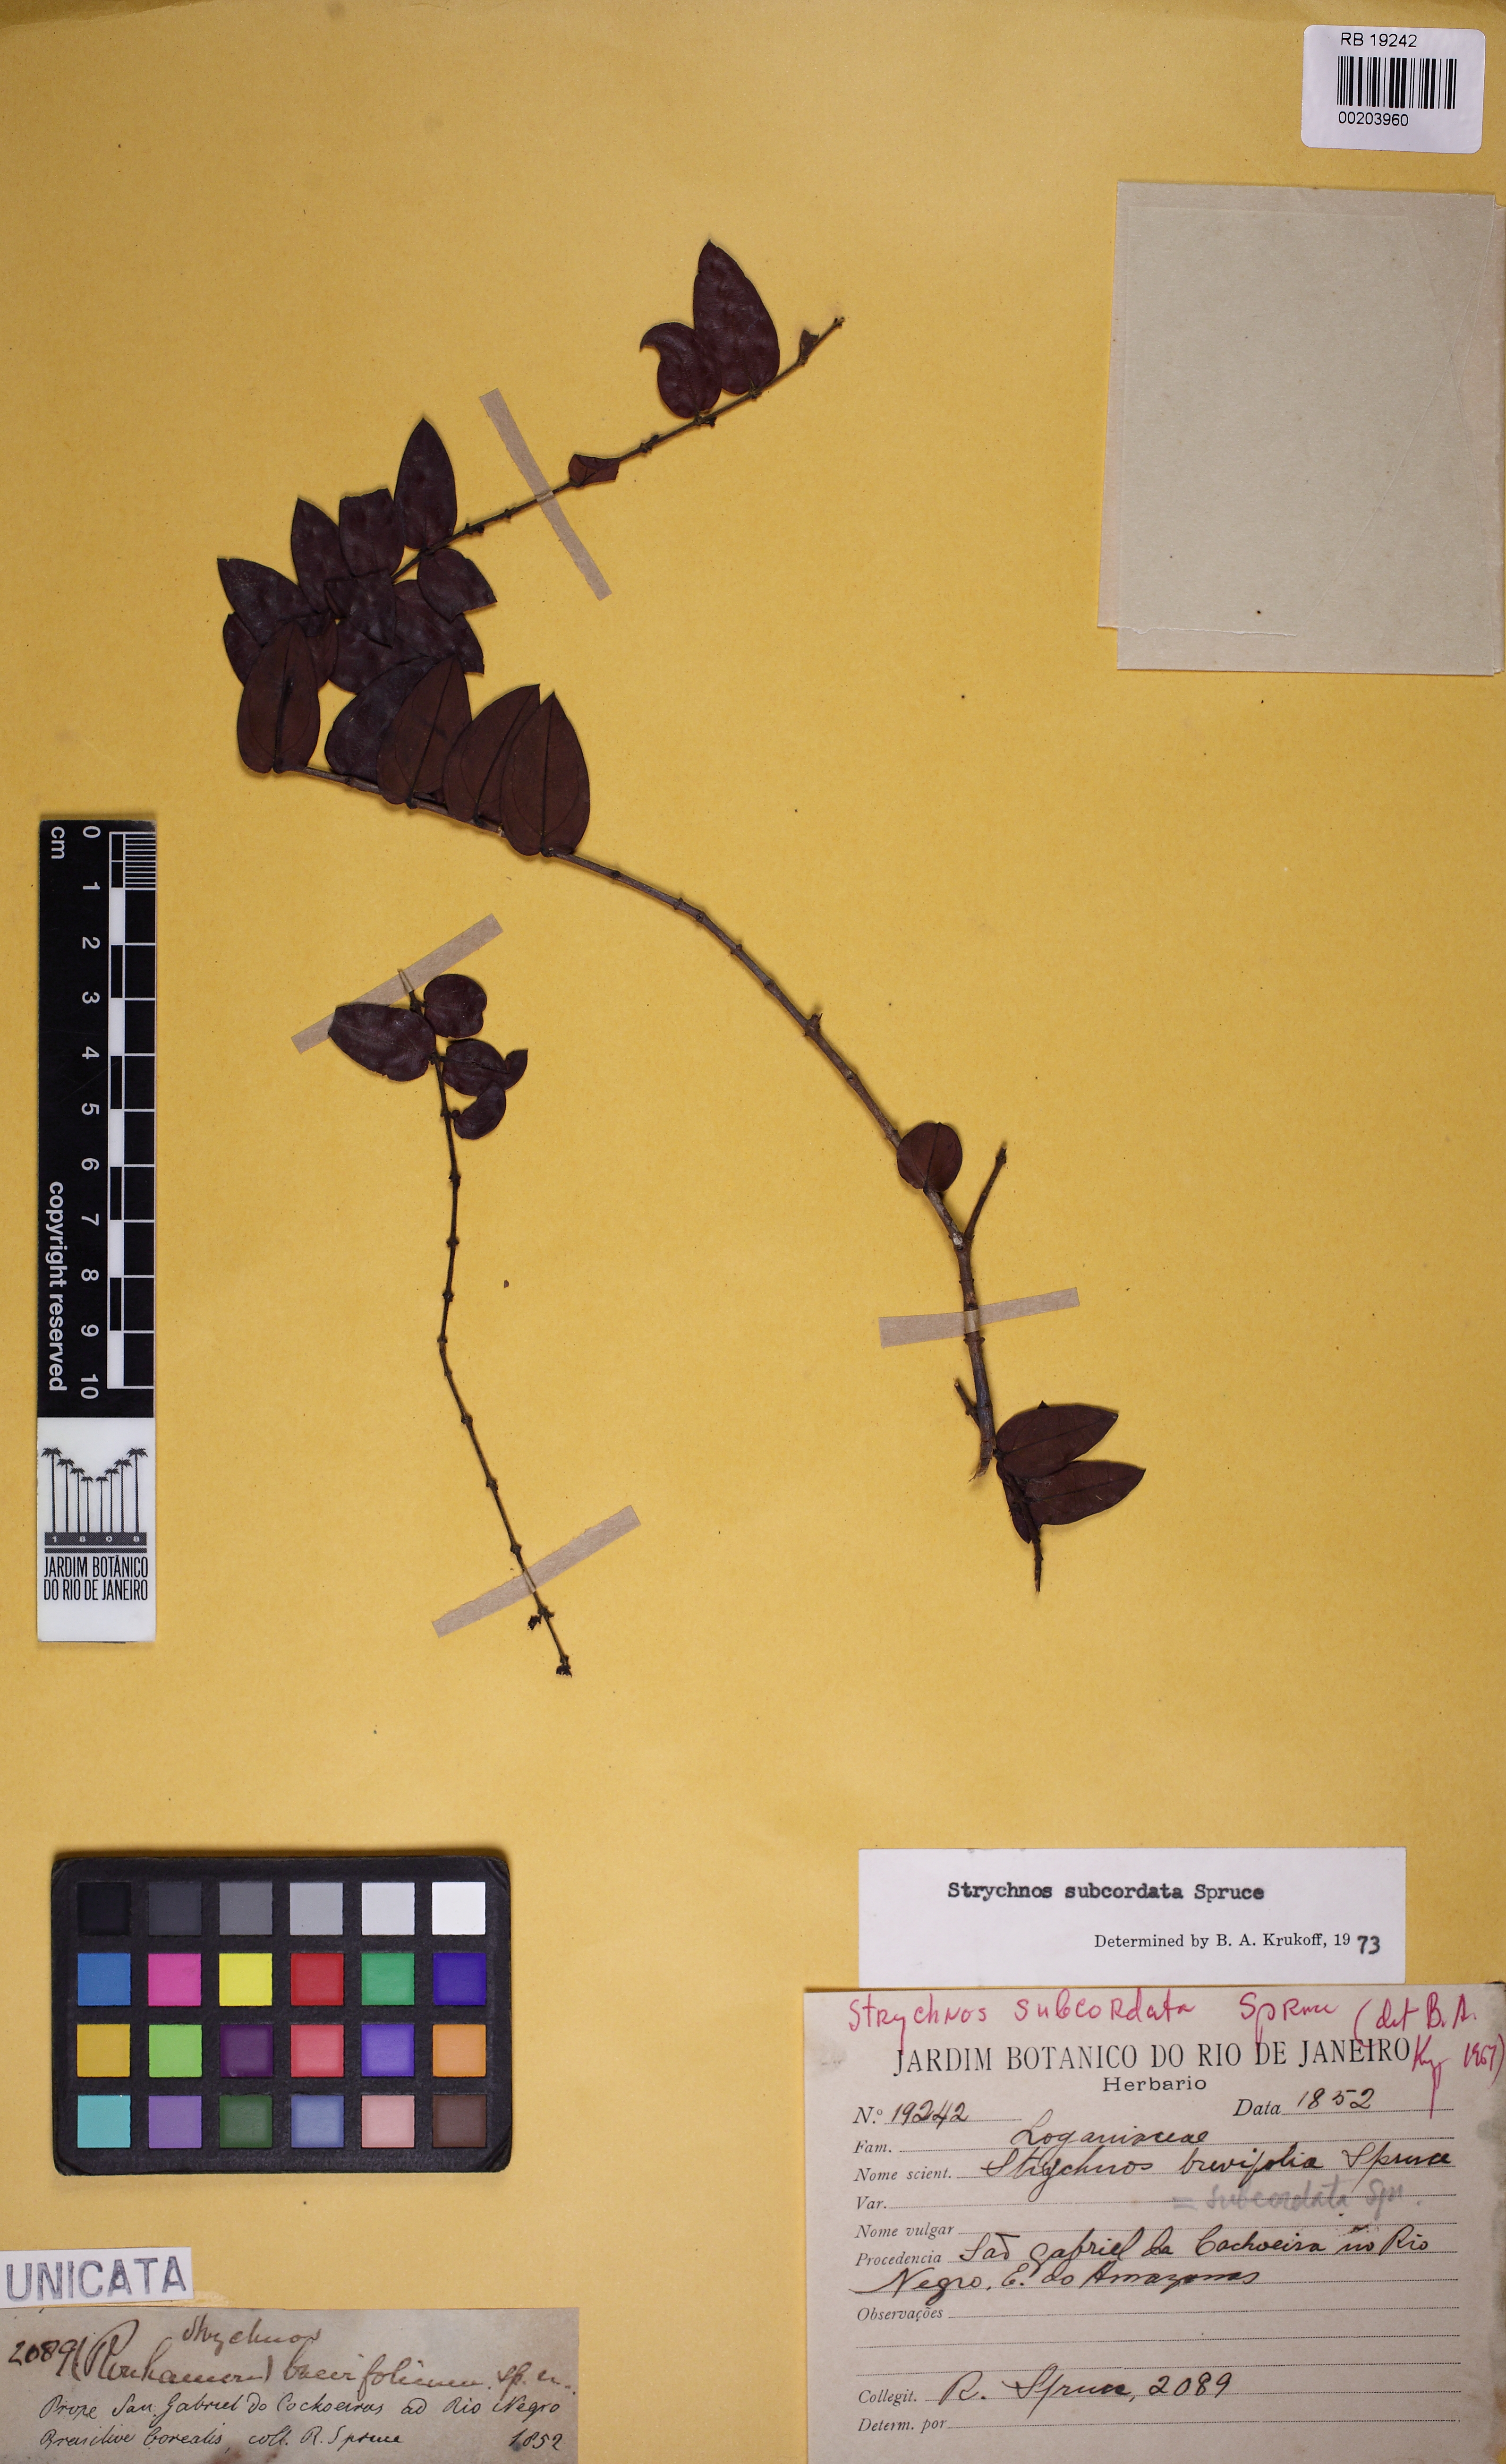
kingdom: Plantae
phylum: Tracheophyta
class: Magnoliopsida
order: Gentianales
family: Loganiaceae
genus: Strychnos
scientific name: Strychnos subcordata
